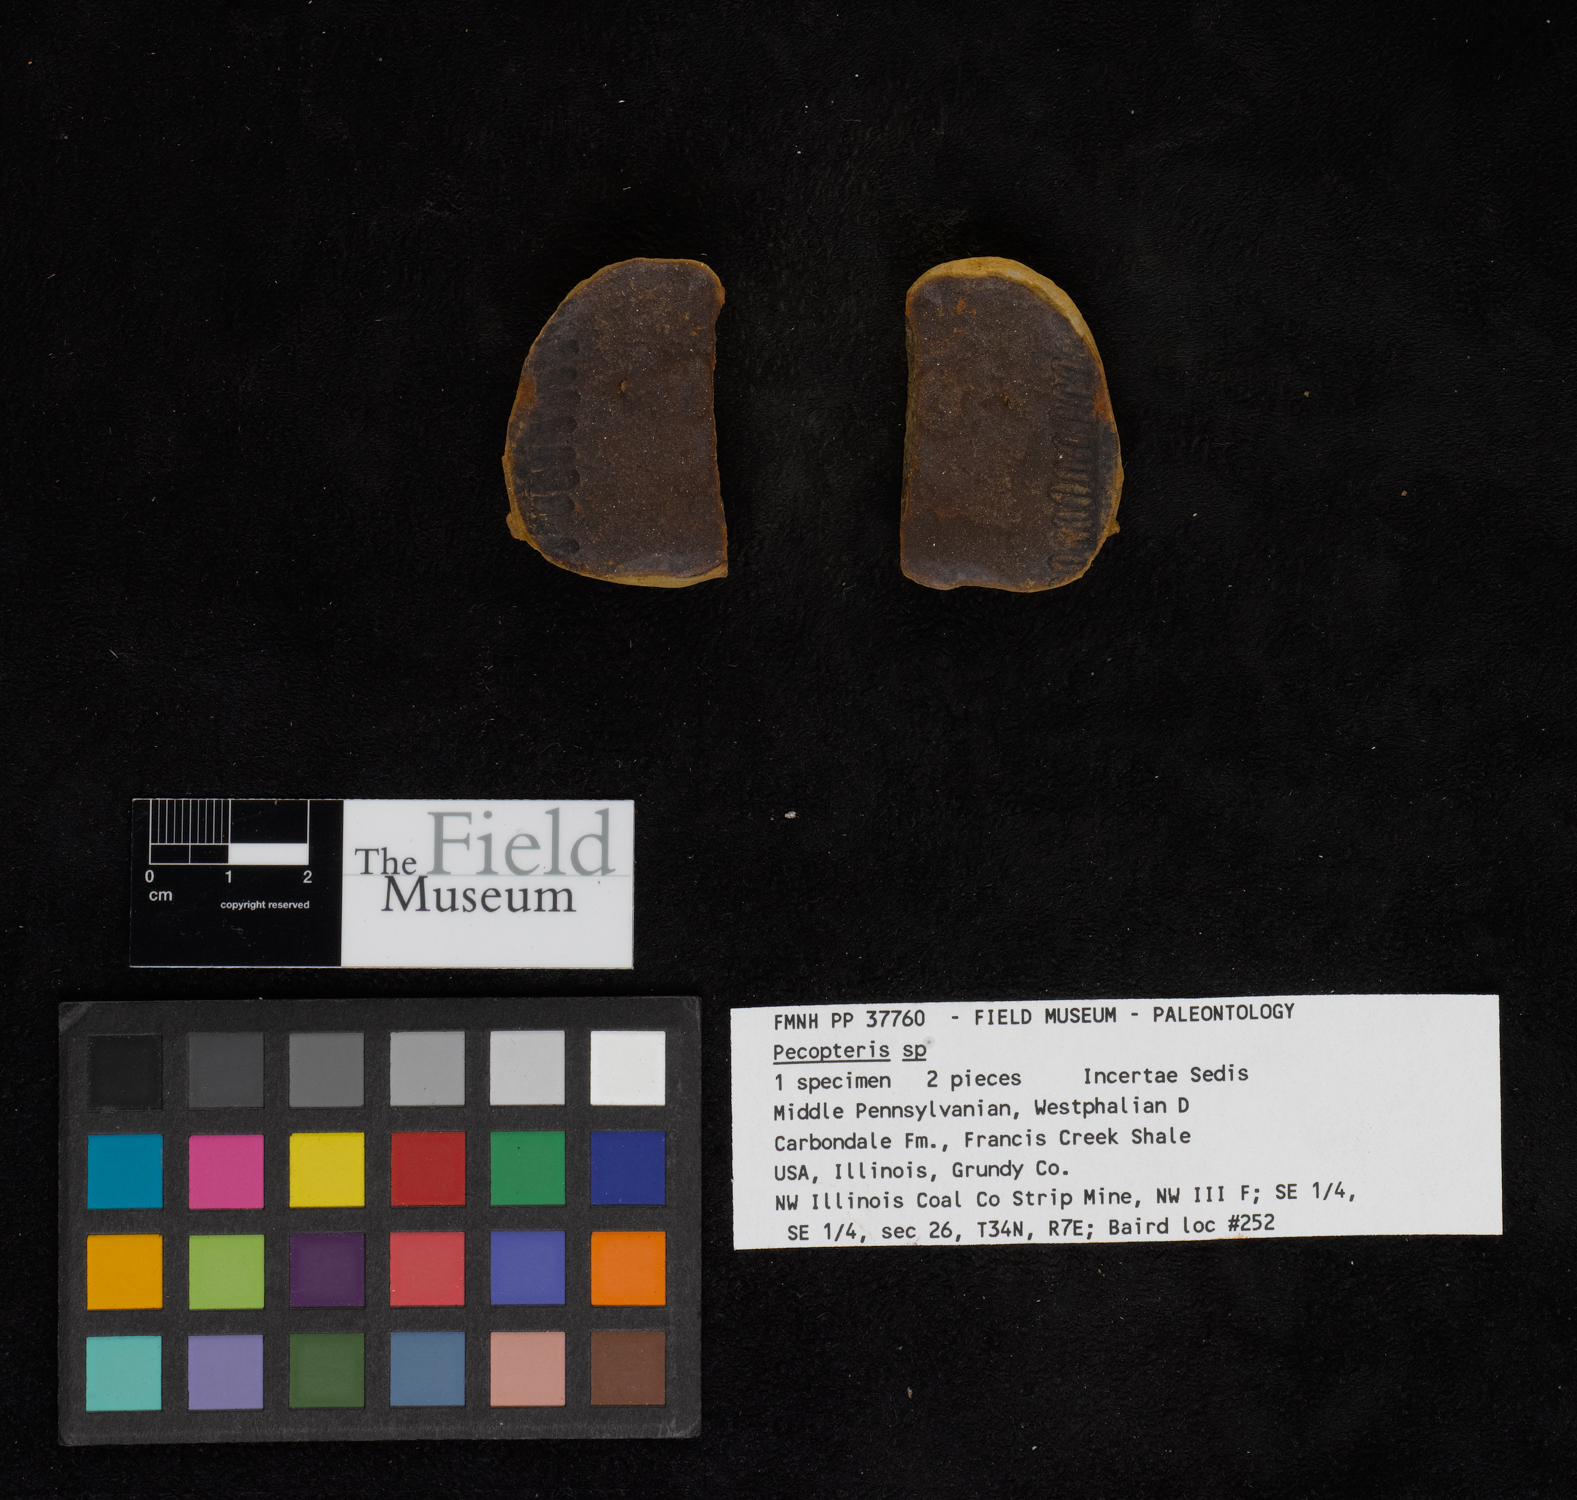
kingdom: Plantae
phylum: Tracheophyta
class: Polypodiopsida
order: Marattiales
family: Asterothecaceae
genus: Pecopteris
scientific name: Pecopteris
